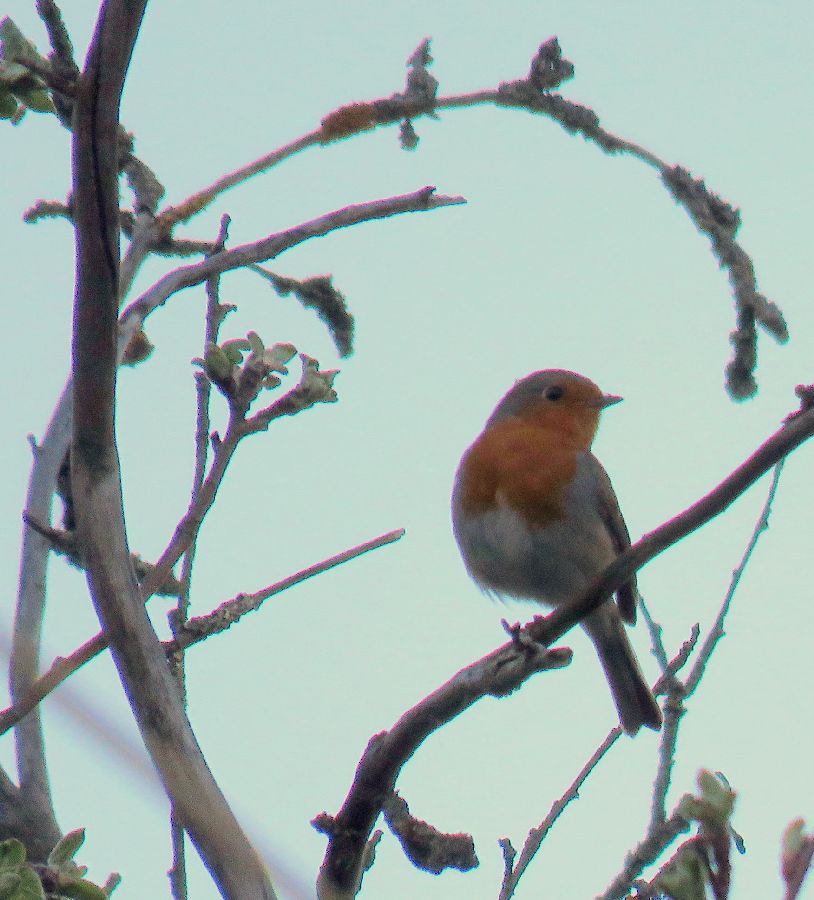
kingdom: Animalia
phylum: Chordata
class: Aves
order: Passeriformes
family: Muscicapidae
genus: Erithacus
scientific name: Erithacus rubecula
